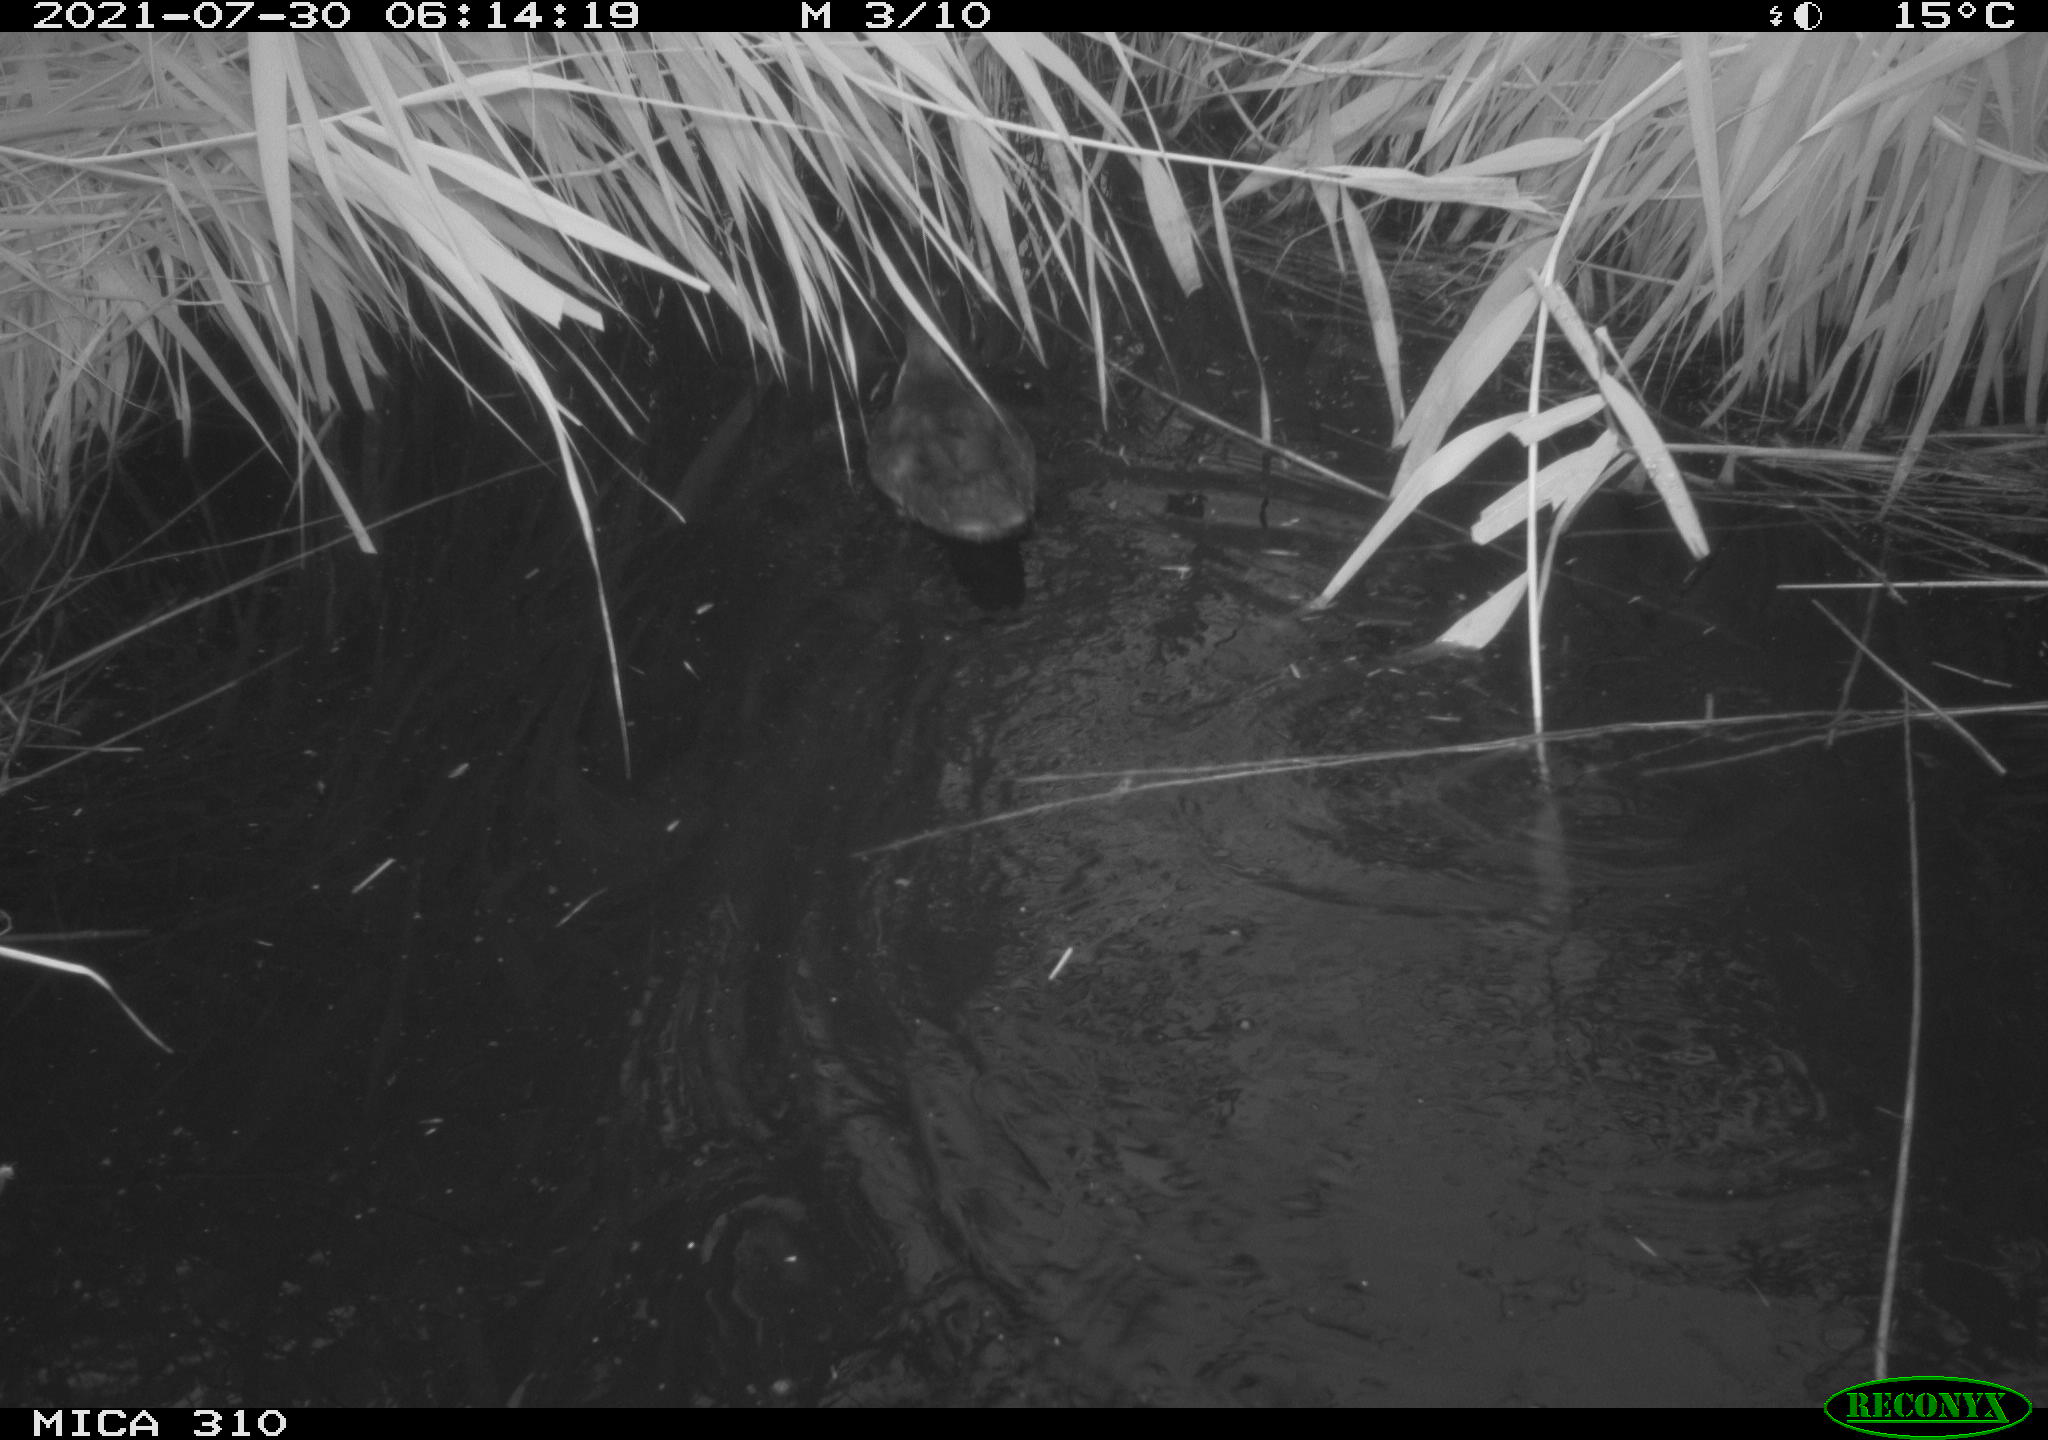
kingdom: Animalia
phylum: Chordata
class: Aves
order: Gruiformes
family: Rallidae
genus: Fulica
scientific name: Fulica atra
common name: Eurasian coot
